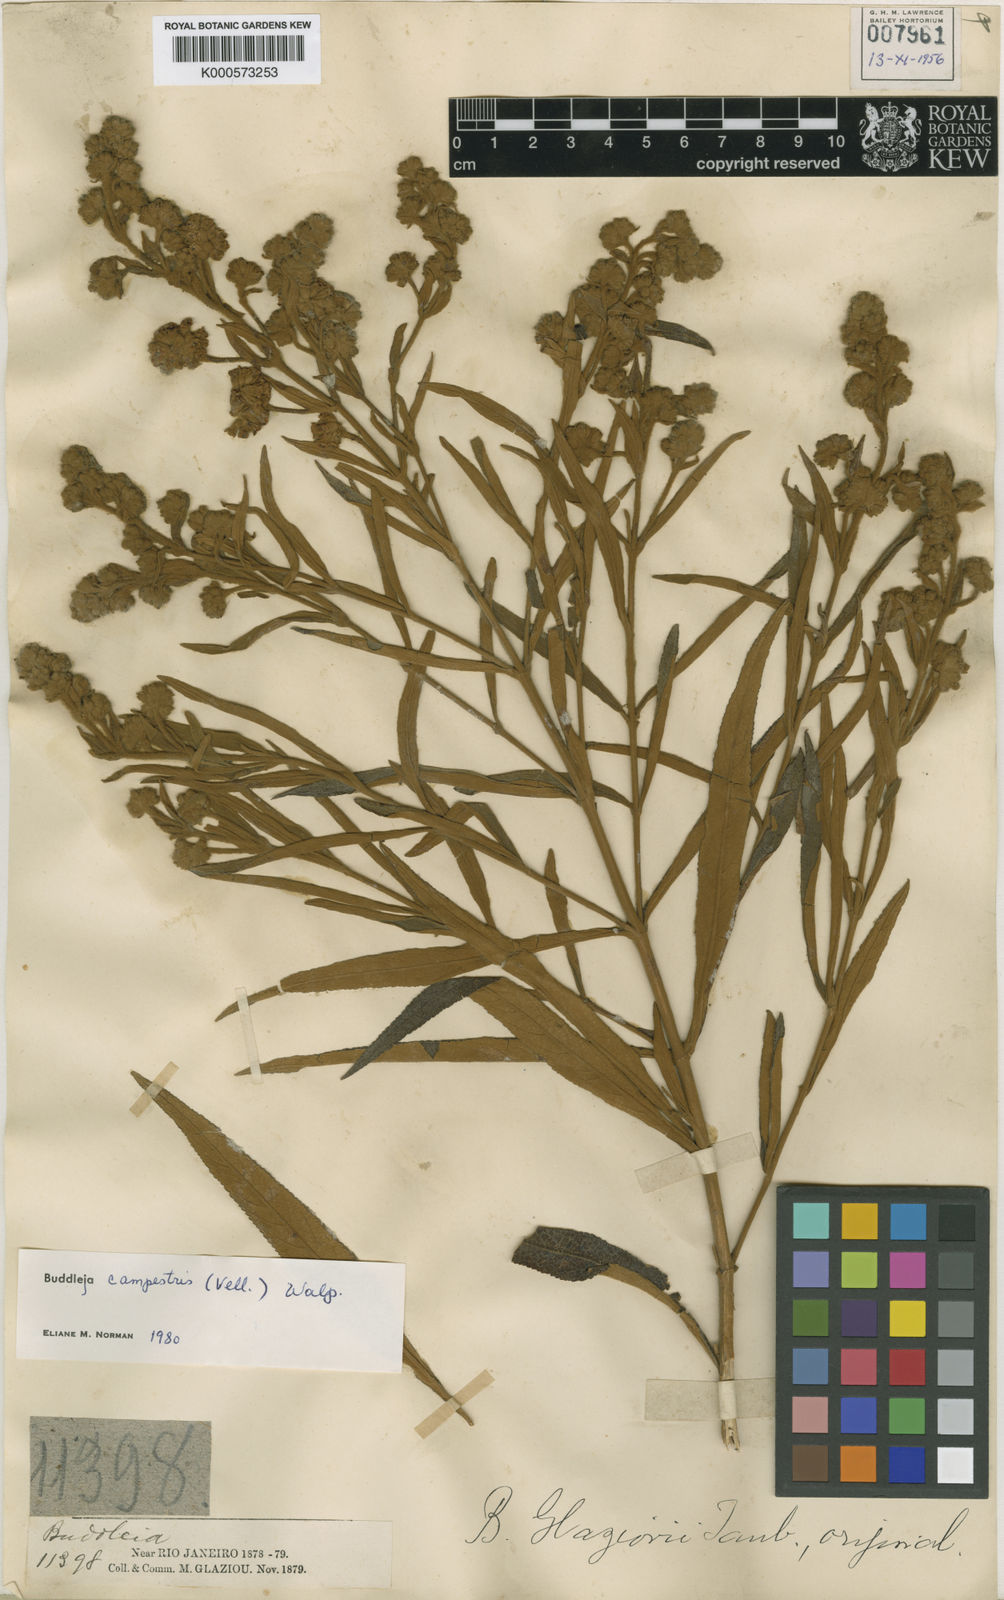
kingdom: Plantae
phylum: Tracheophyta
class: Magnoliopsida
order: Lamiales
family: Scrophulariaceae
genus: Buddleja
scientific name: Buddleja elegans
